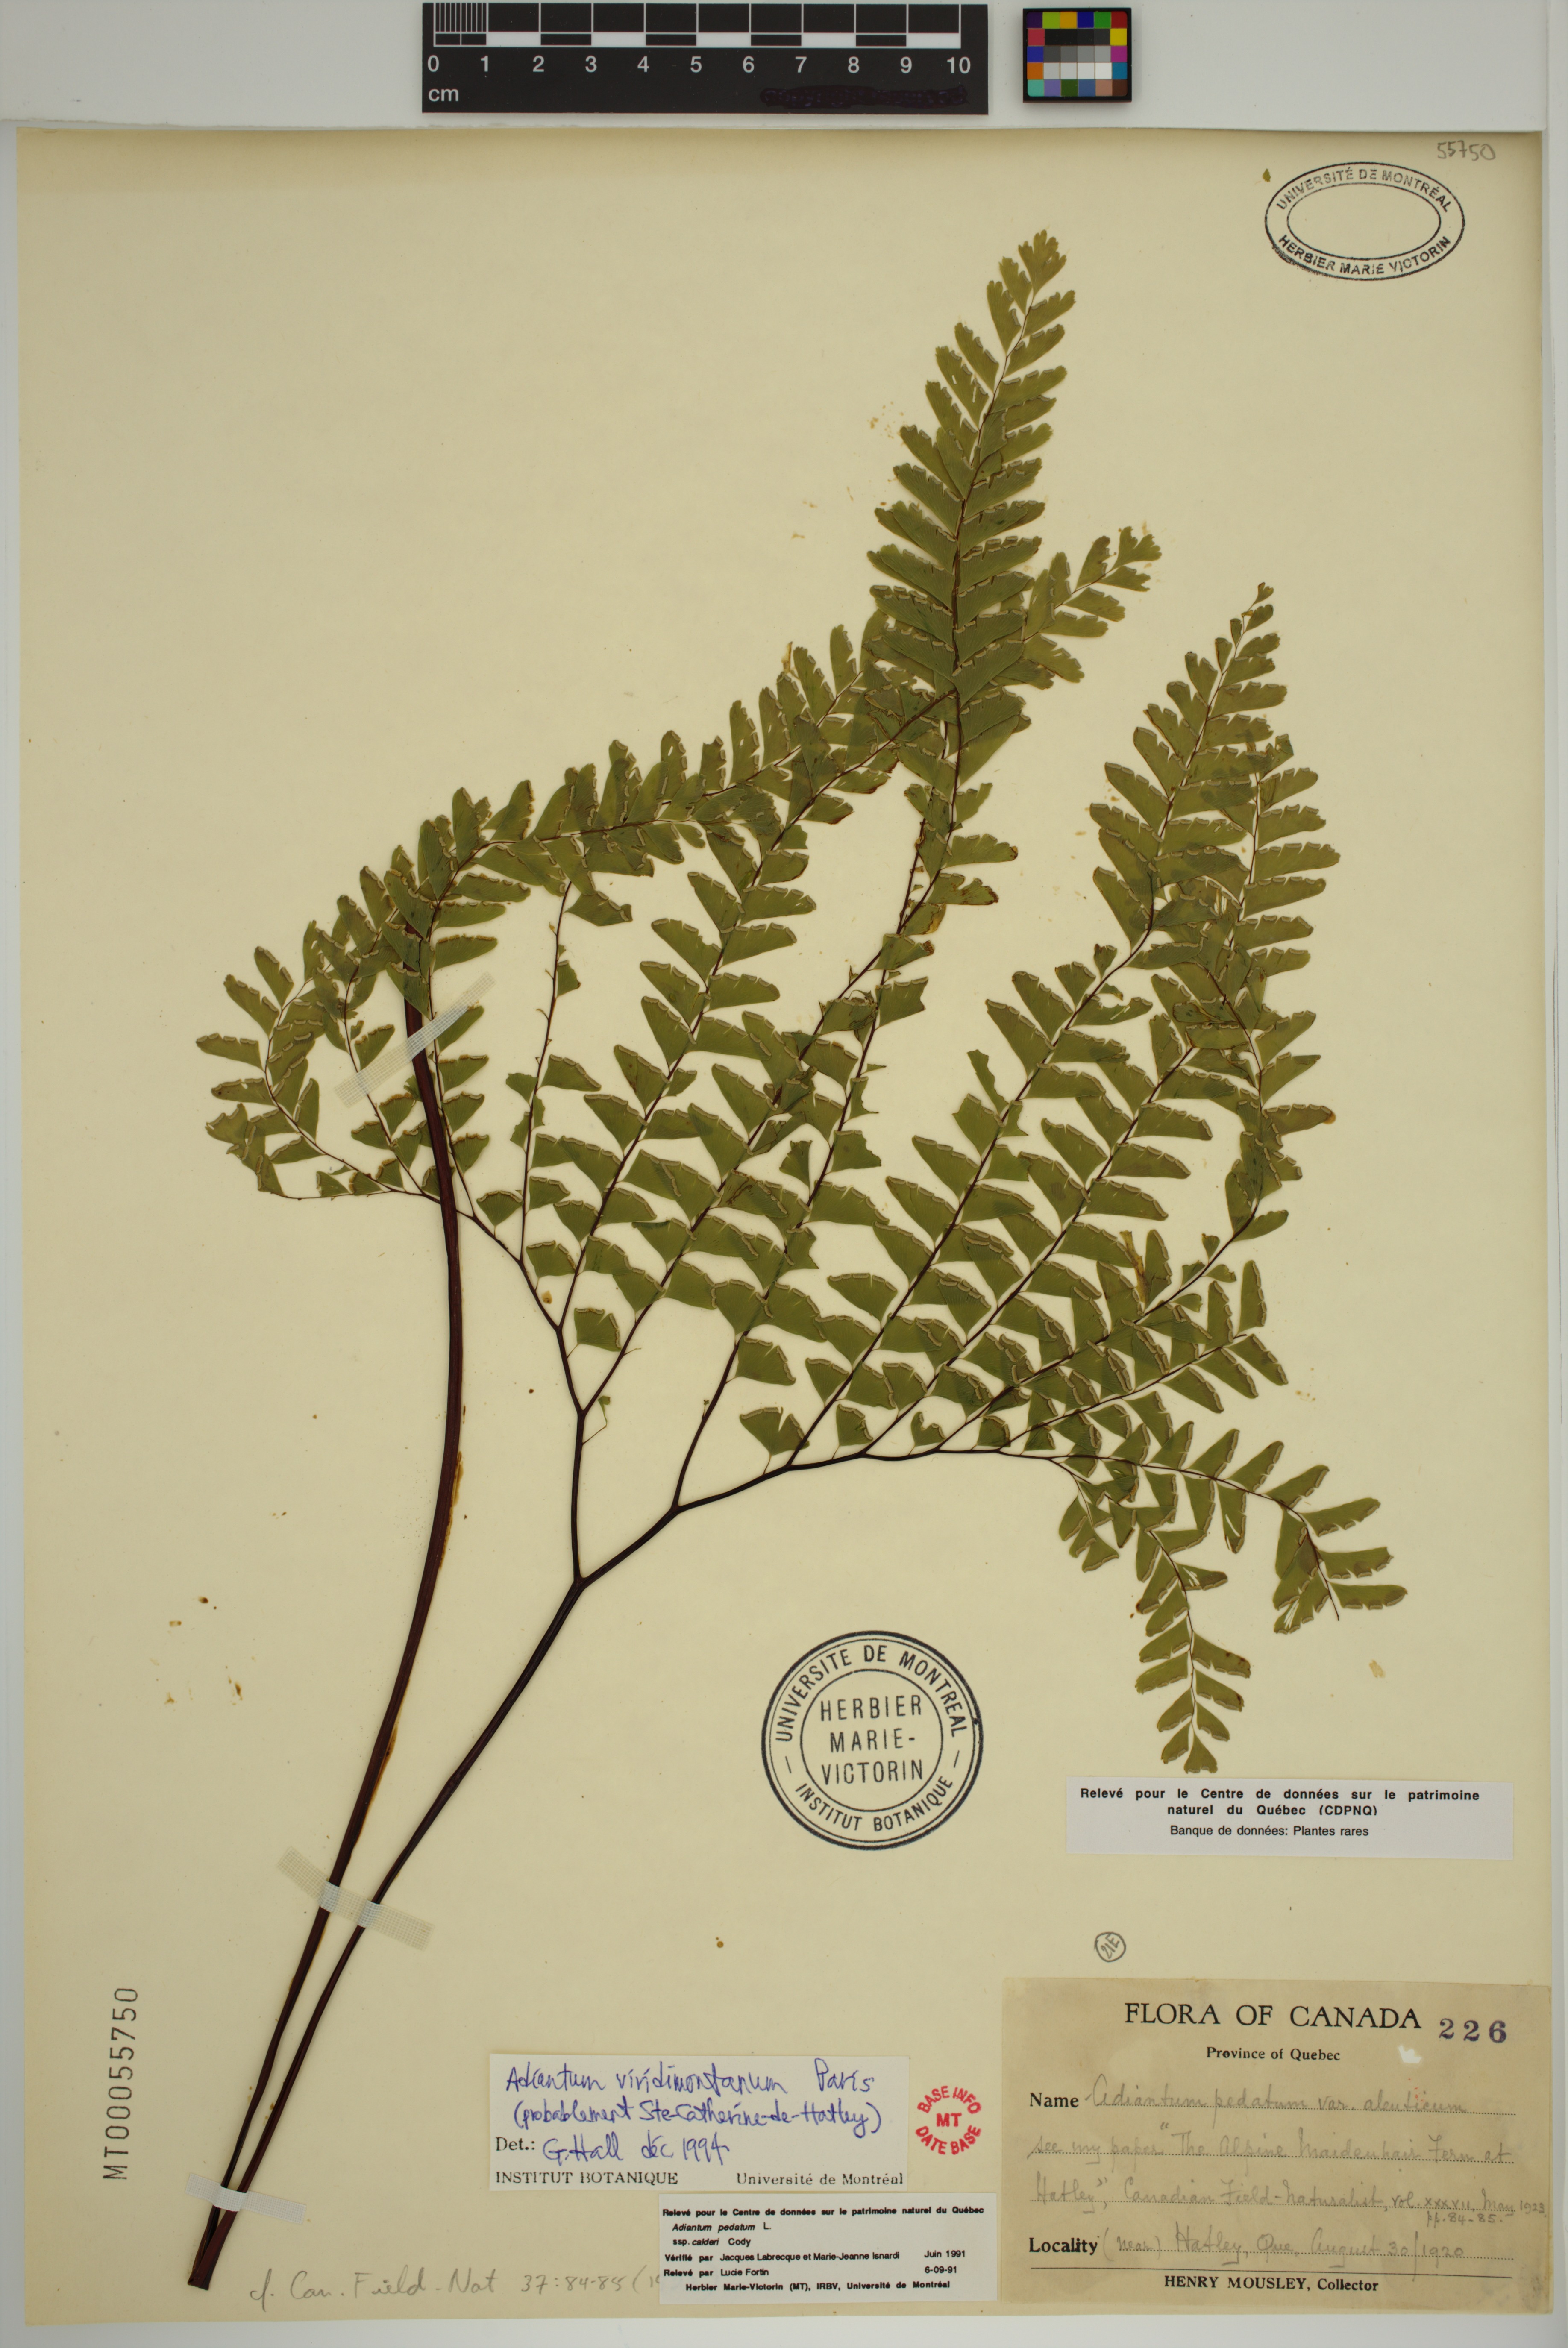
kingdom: Plantae
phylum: Tracheophyta
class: Polypodiopsida
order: Polypodiales
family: Pteridaceae
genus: Adiantum
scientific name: Adiantum viridimontanum
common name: Green mountain maidenhair
